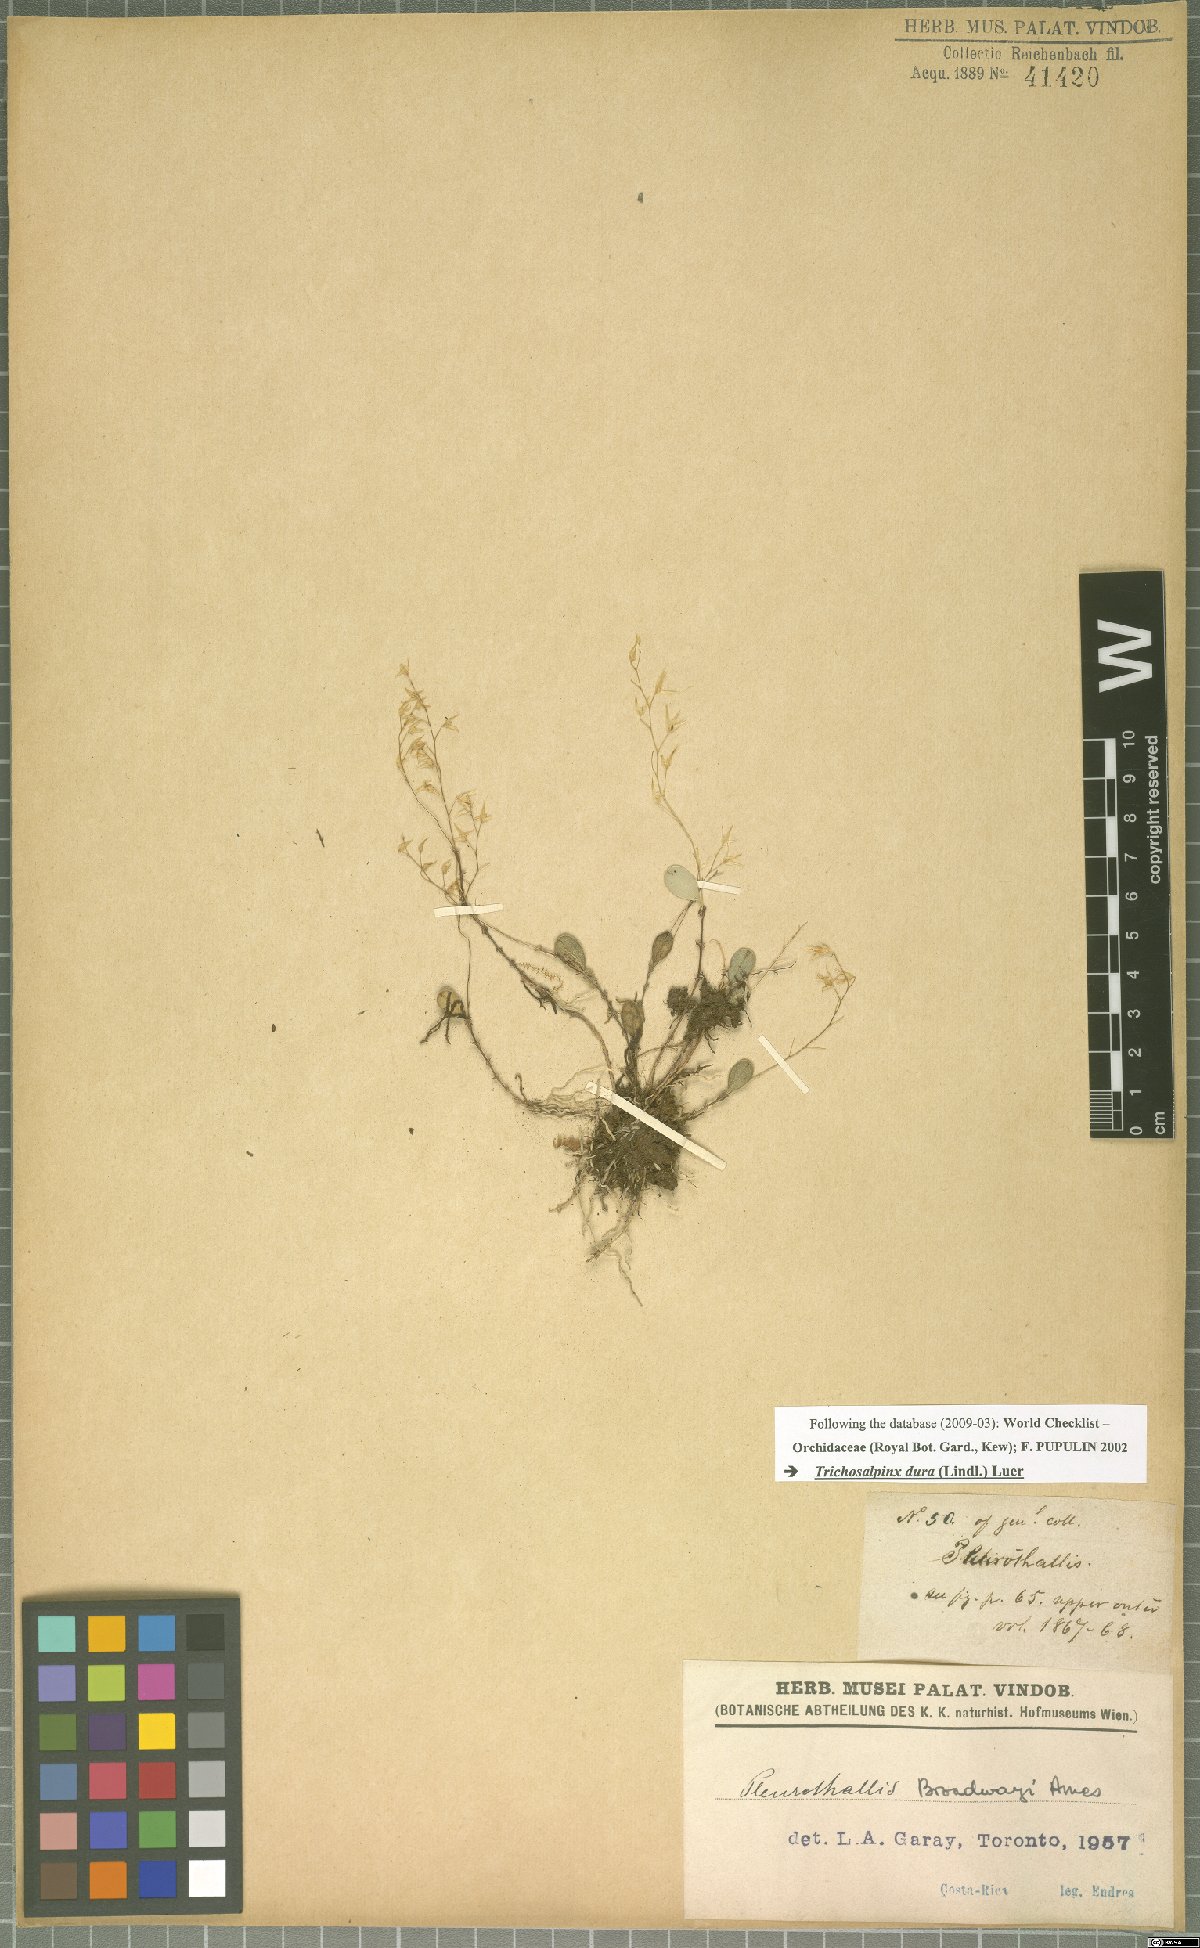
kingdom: Plantae
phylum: Tracheophyta
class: Liliopsida
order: Asparagales
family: Orchidaceae
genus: Trichosalpinx
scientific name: Trichosalpinx dura
